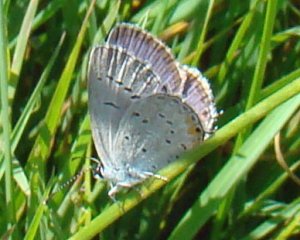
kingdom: Animalia
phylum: Arthropoda
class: Insecta
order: Lepidoptera
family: Lycaenidae
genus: Elkalyce
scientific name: Elkalyce comyntas
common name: Eastern Tailed-Blue
